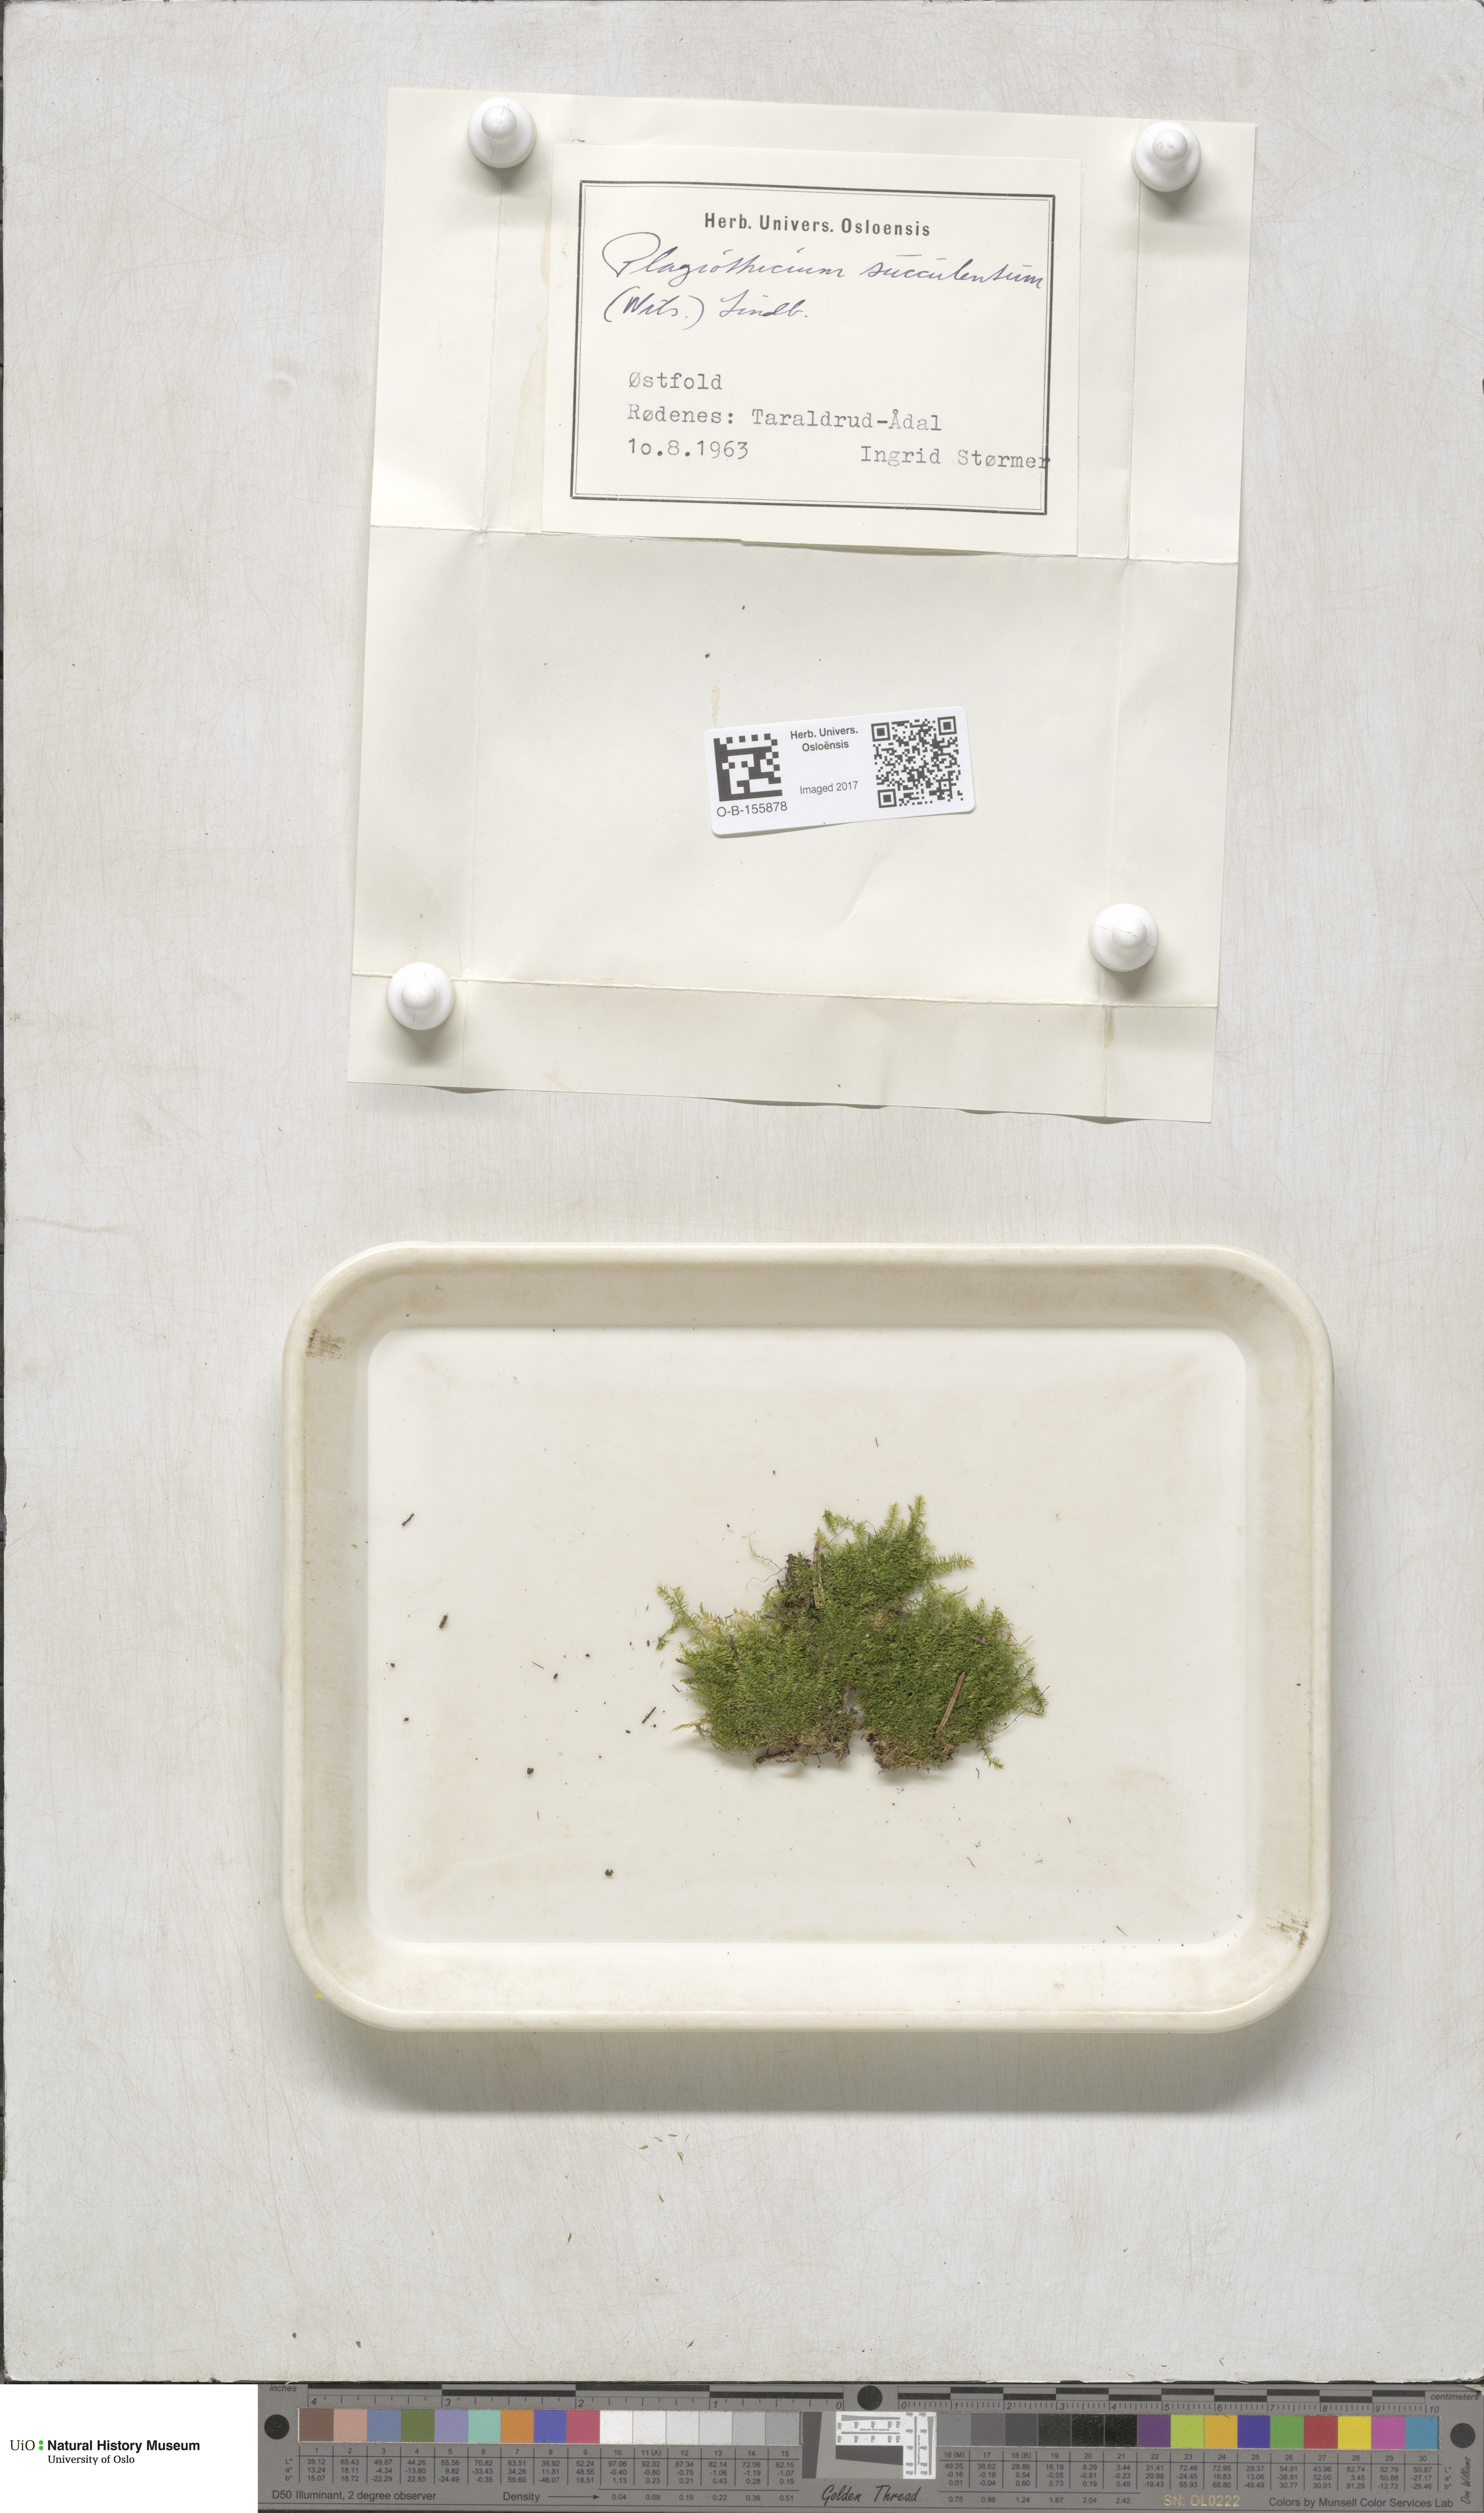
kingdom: Plantae
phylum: Bryophyta
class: Bryopsida
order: Hypnales
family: Plagiotheciaceae
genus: Plagiothecium
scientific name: Plagiothecium nemorale
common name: Woodsy silk-moss
